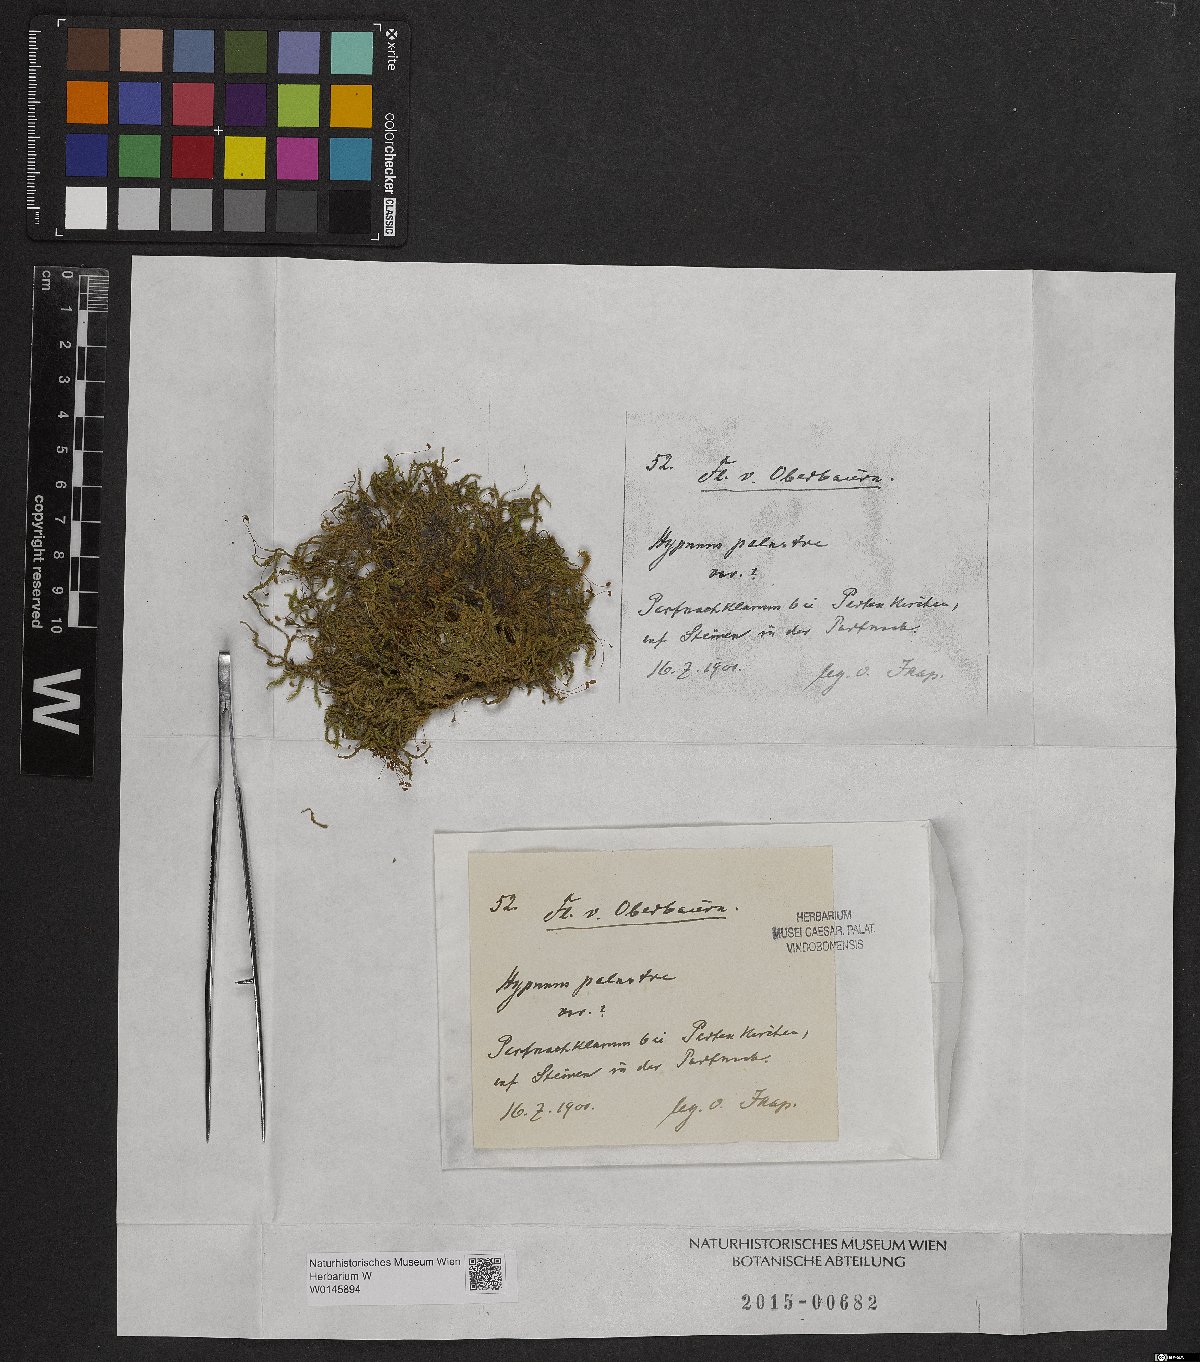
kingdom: Plantae
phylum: Bryophyta
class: Bryopsida
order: Hypnales
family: Amblystegiaceae
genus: Hygrohypnum
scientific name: Hygrohypnum luridum
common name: Drab brook moss
